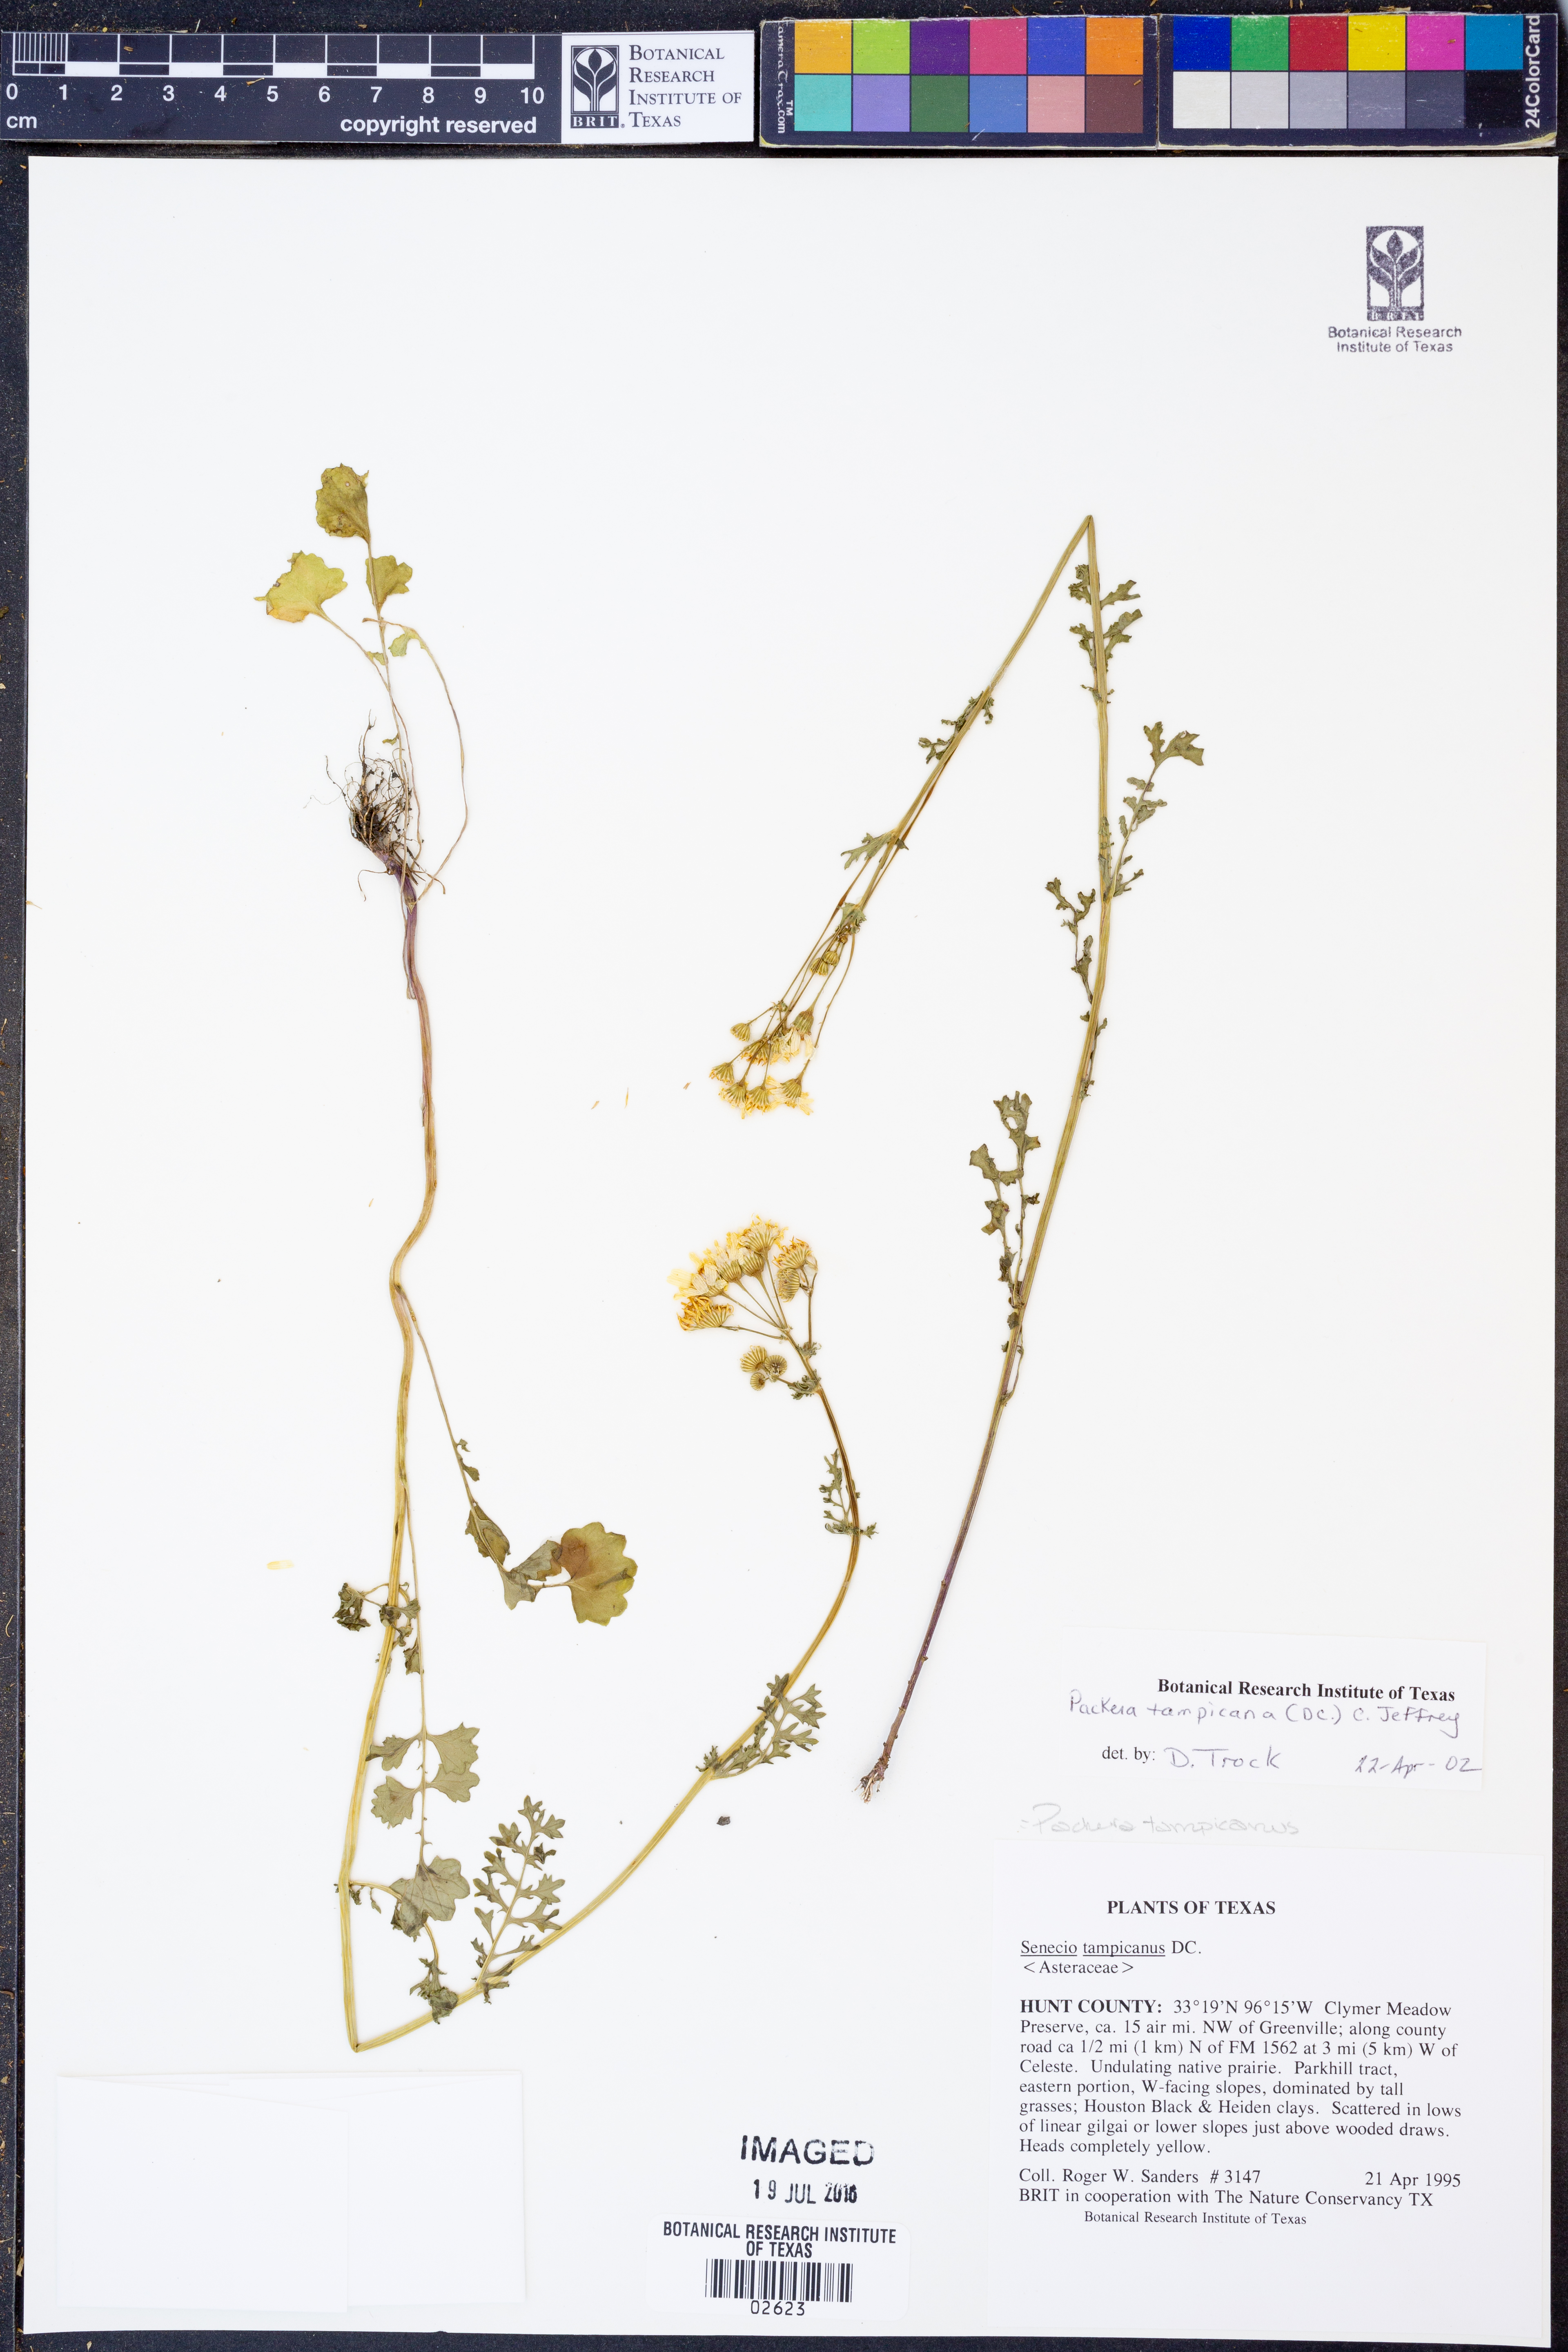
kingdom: Plantae
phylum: Tracheophyta
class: Magnoliopsida
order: Asterales
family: Asteraceae
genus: Packera
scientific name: Packera tampicana
